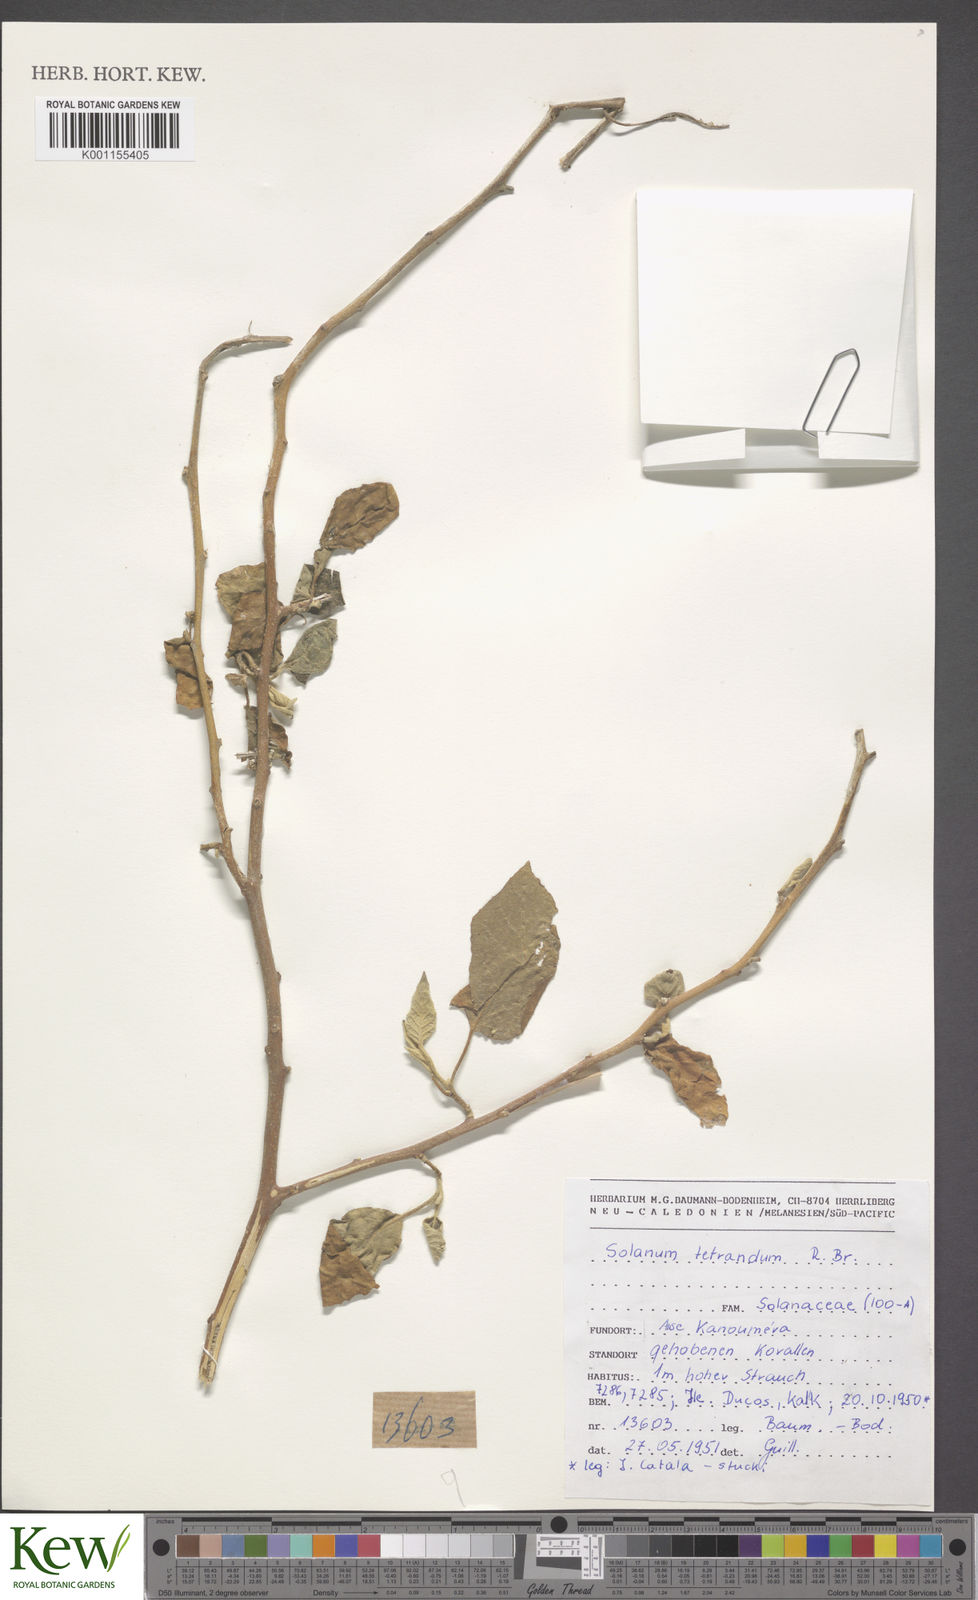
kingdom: Plantae
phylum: Tracheophyta
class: Magnoliopsida
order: Solanales
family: Solanaceae
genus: Solanum
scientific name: Solanum tetrandrum
